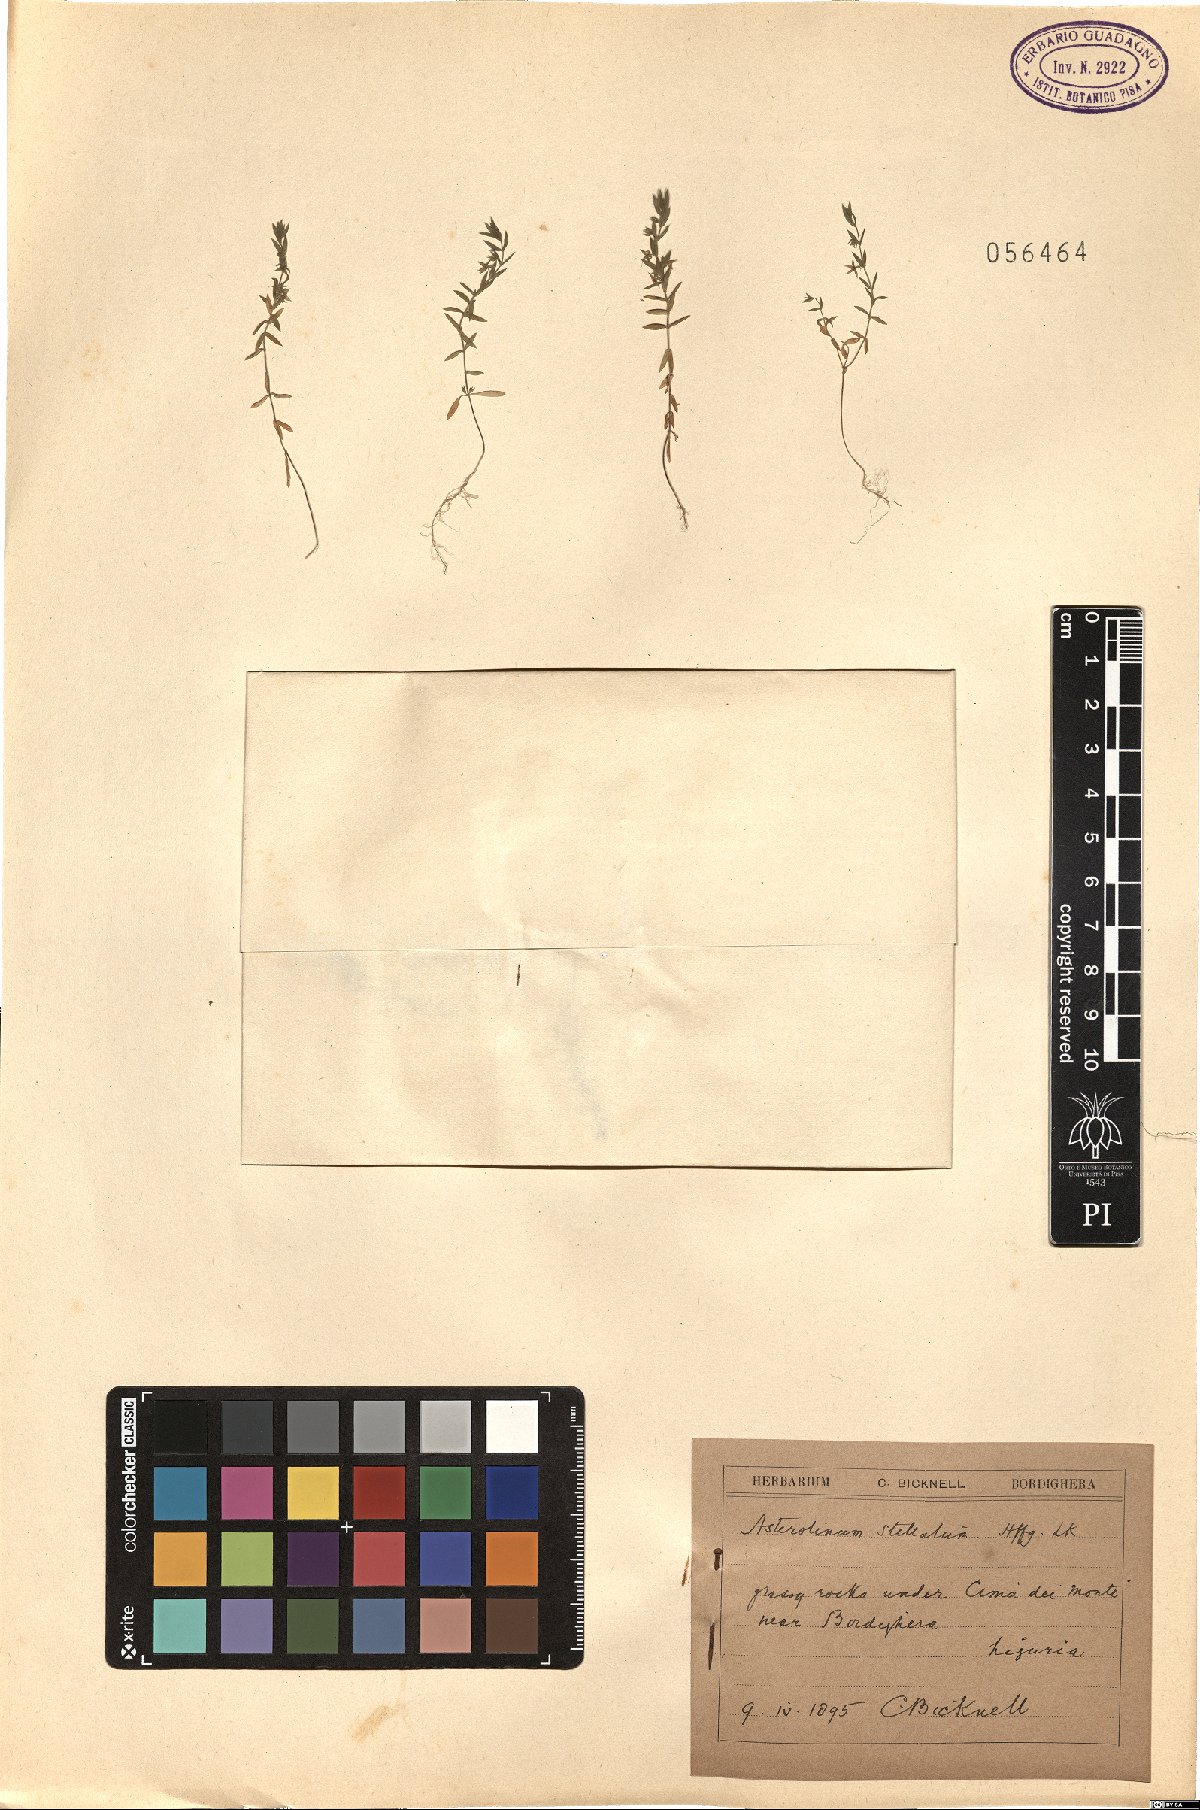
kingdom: Plantae
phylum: Tracheophyta
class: Magnoliopsida
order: Ericales
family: Primulaceae
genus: Lysimachia
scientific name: Lysimachia linum-stellatum
